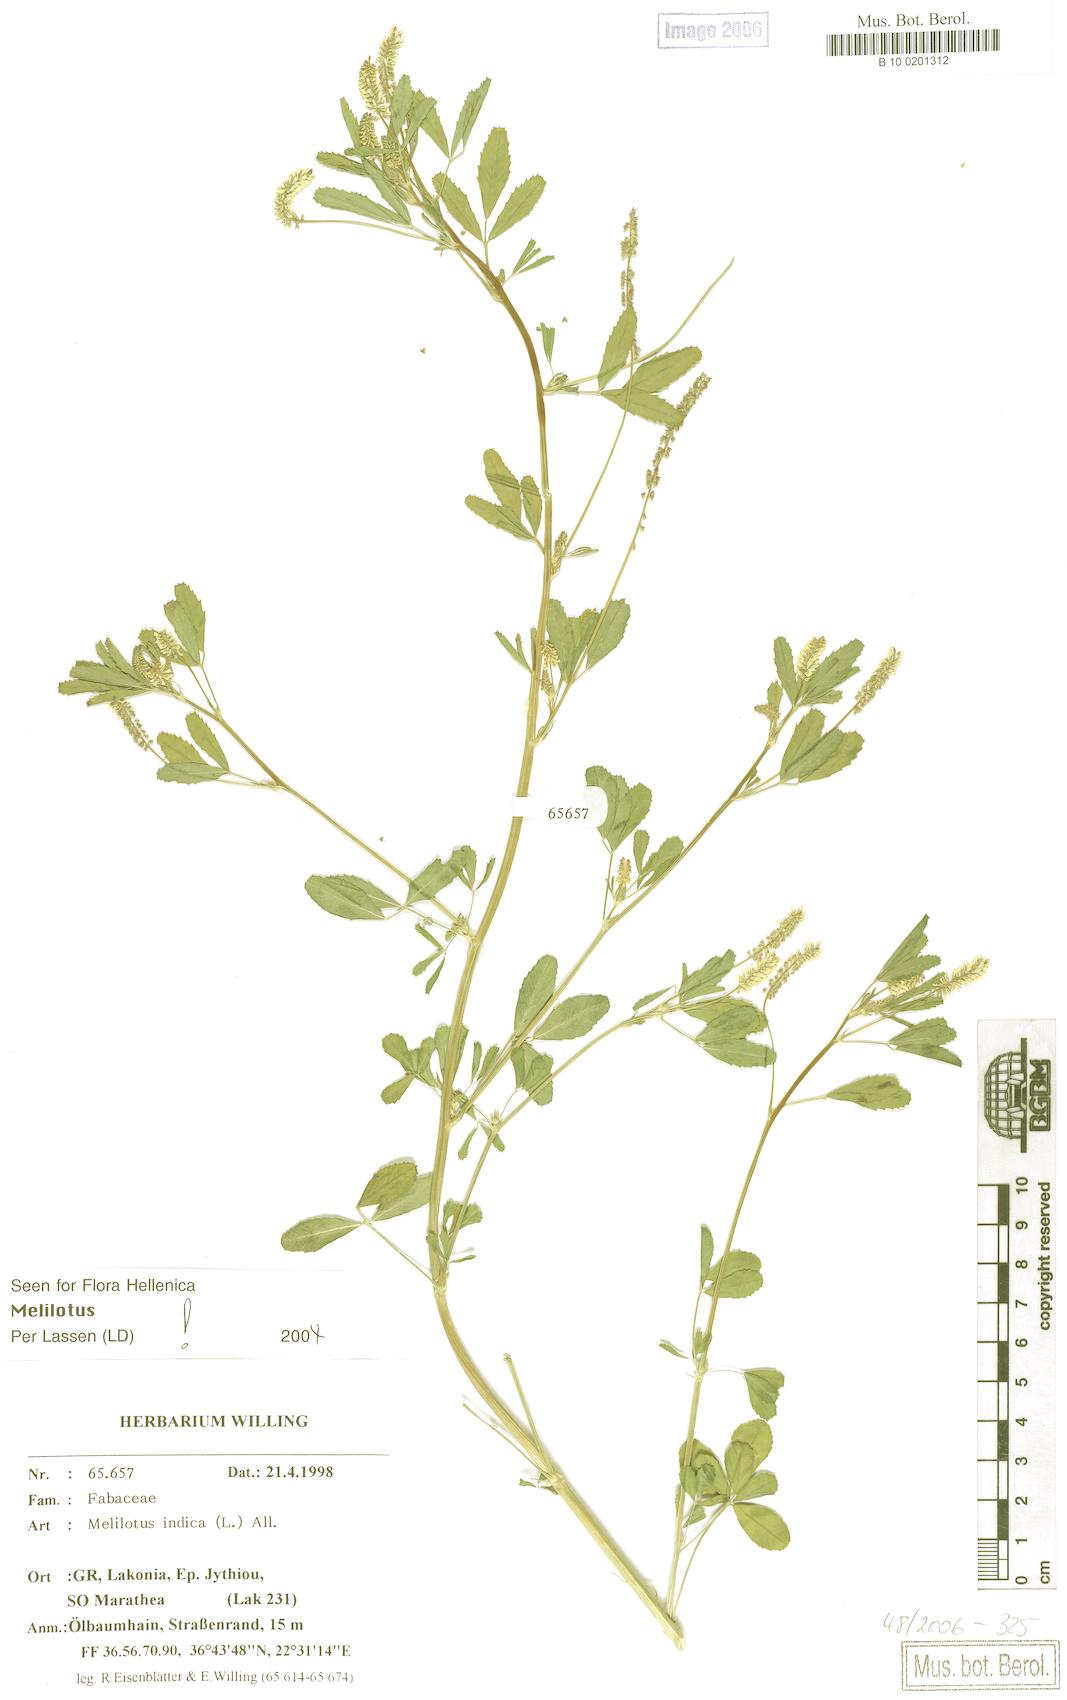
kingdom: Plantae
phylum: Tracheophyta
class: Magnoliopsida
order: Fabales
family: Fabaceae
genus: Melilotus
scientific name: Melilotus indicus
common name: Small melilot
